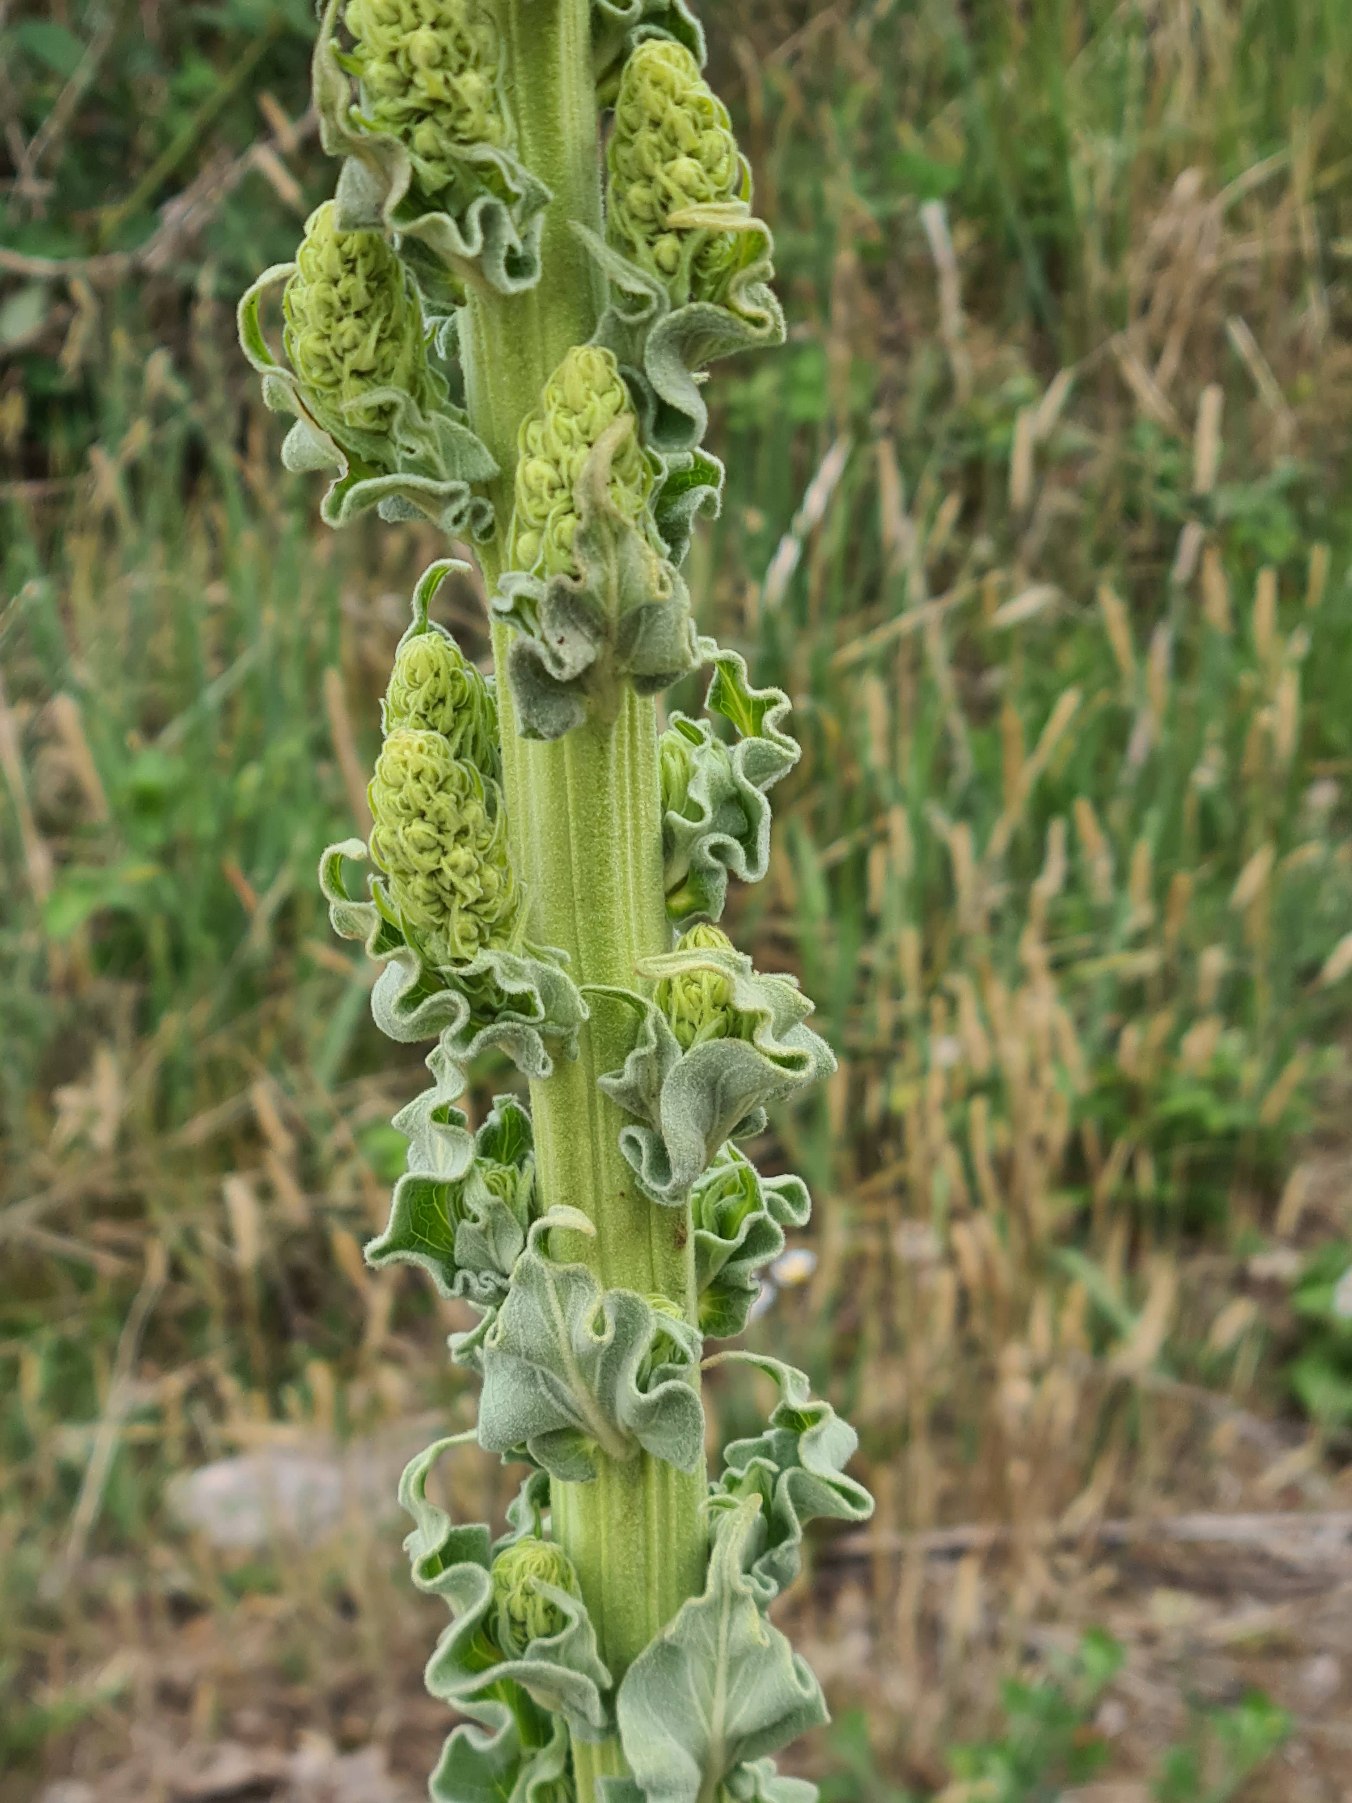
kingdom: Plantae
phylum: Tracheophyta
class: Magnoliopsida
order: Lamiales
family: Scrophulariaceae
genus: Verbascum
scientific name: Verbascum speciosum
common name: Kandelaber-kongelys
